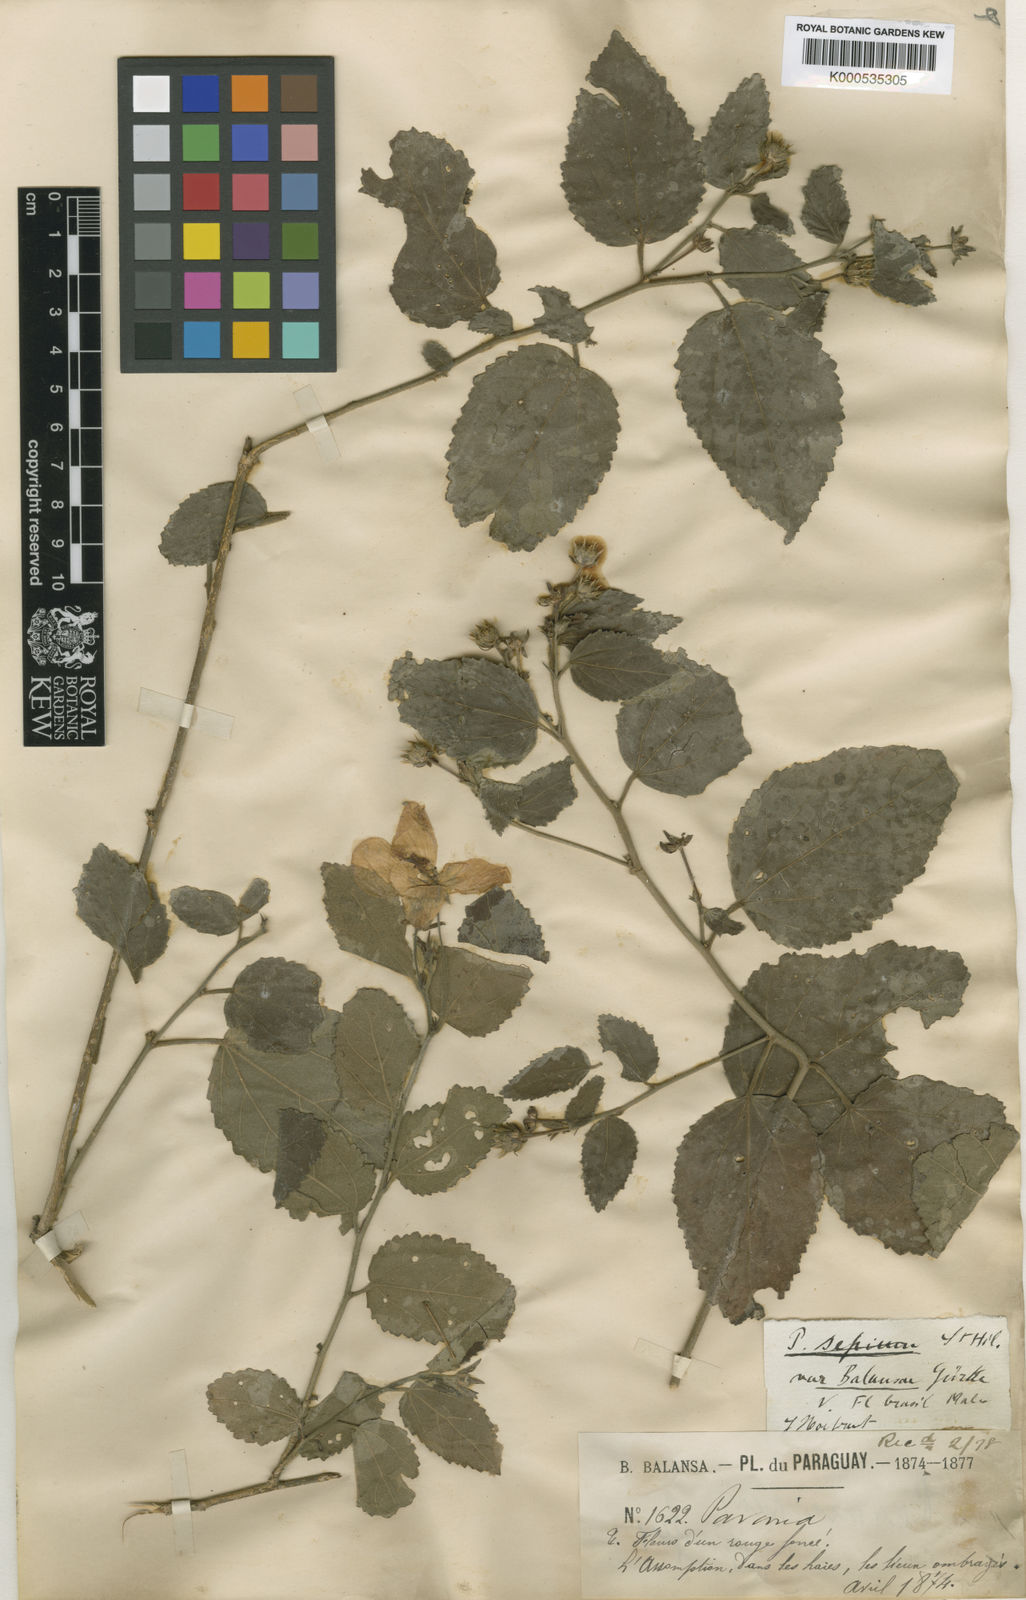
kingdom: Plantae
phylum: Tracheophyta
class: Magnoliopsida
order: Malvales
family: Malvaceae
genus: Pavonia
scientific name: Pavonia sepium
